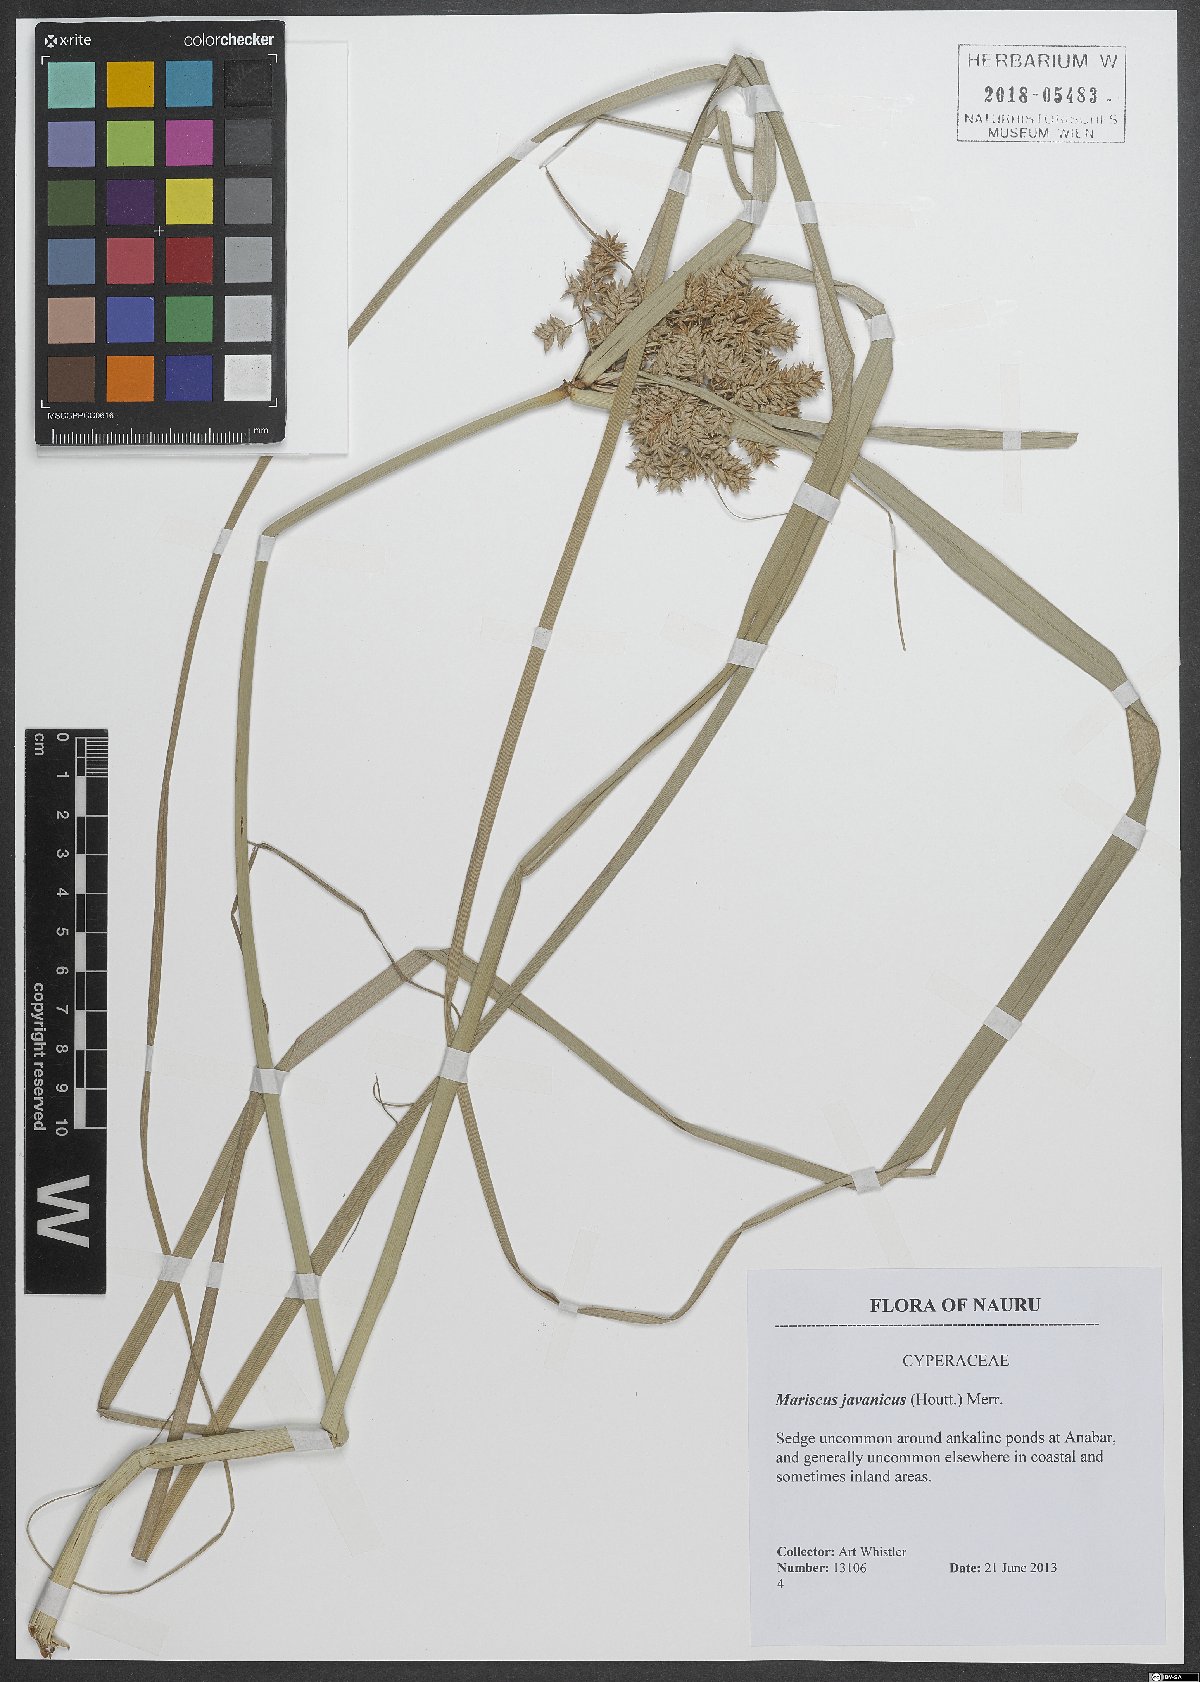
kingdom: Plantae
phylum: Tracheophyta
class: Liliopsida
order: Poales
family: Cyperaceae
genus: Gahnia
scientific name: Gahnia javanica
